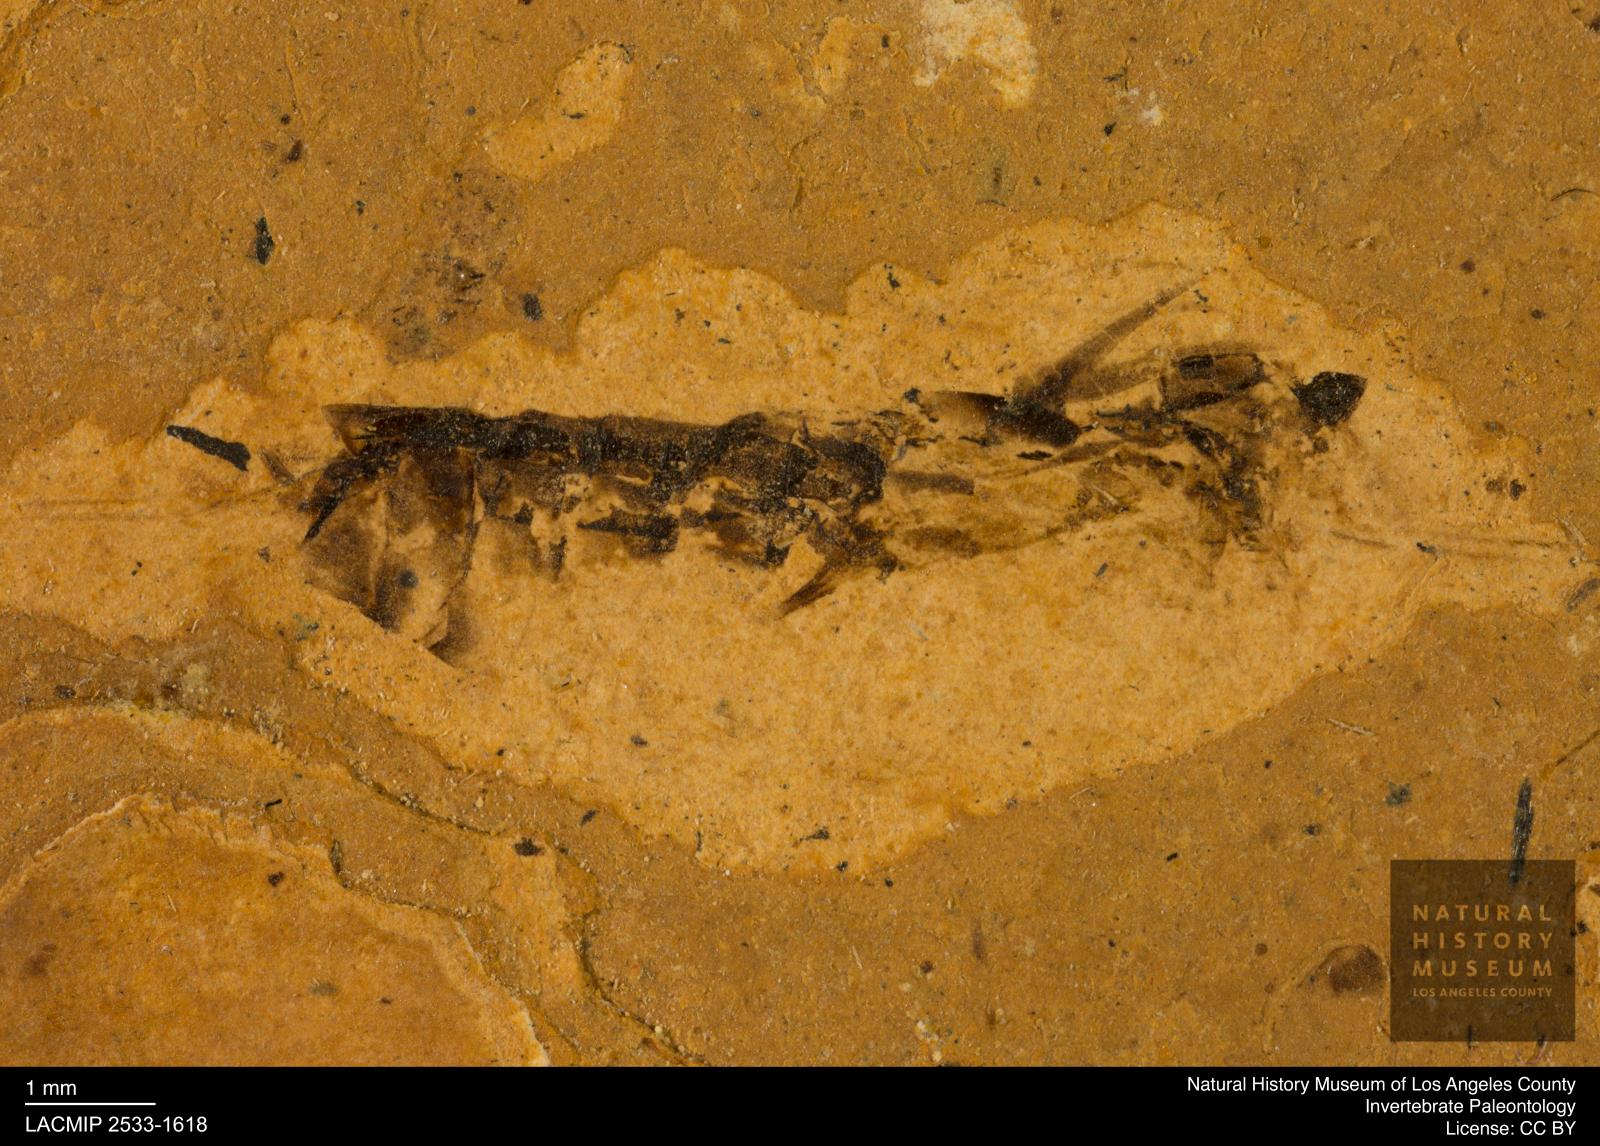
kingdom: Animalia
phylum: Arthropoda
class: Insecta
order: Hemiptera
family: Notonectidae
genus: Notonecta
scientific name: Notonecta
